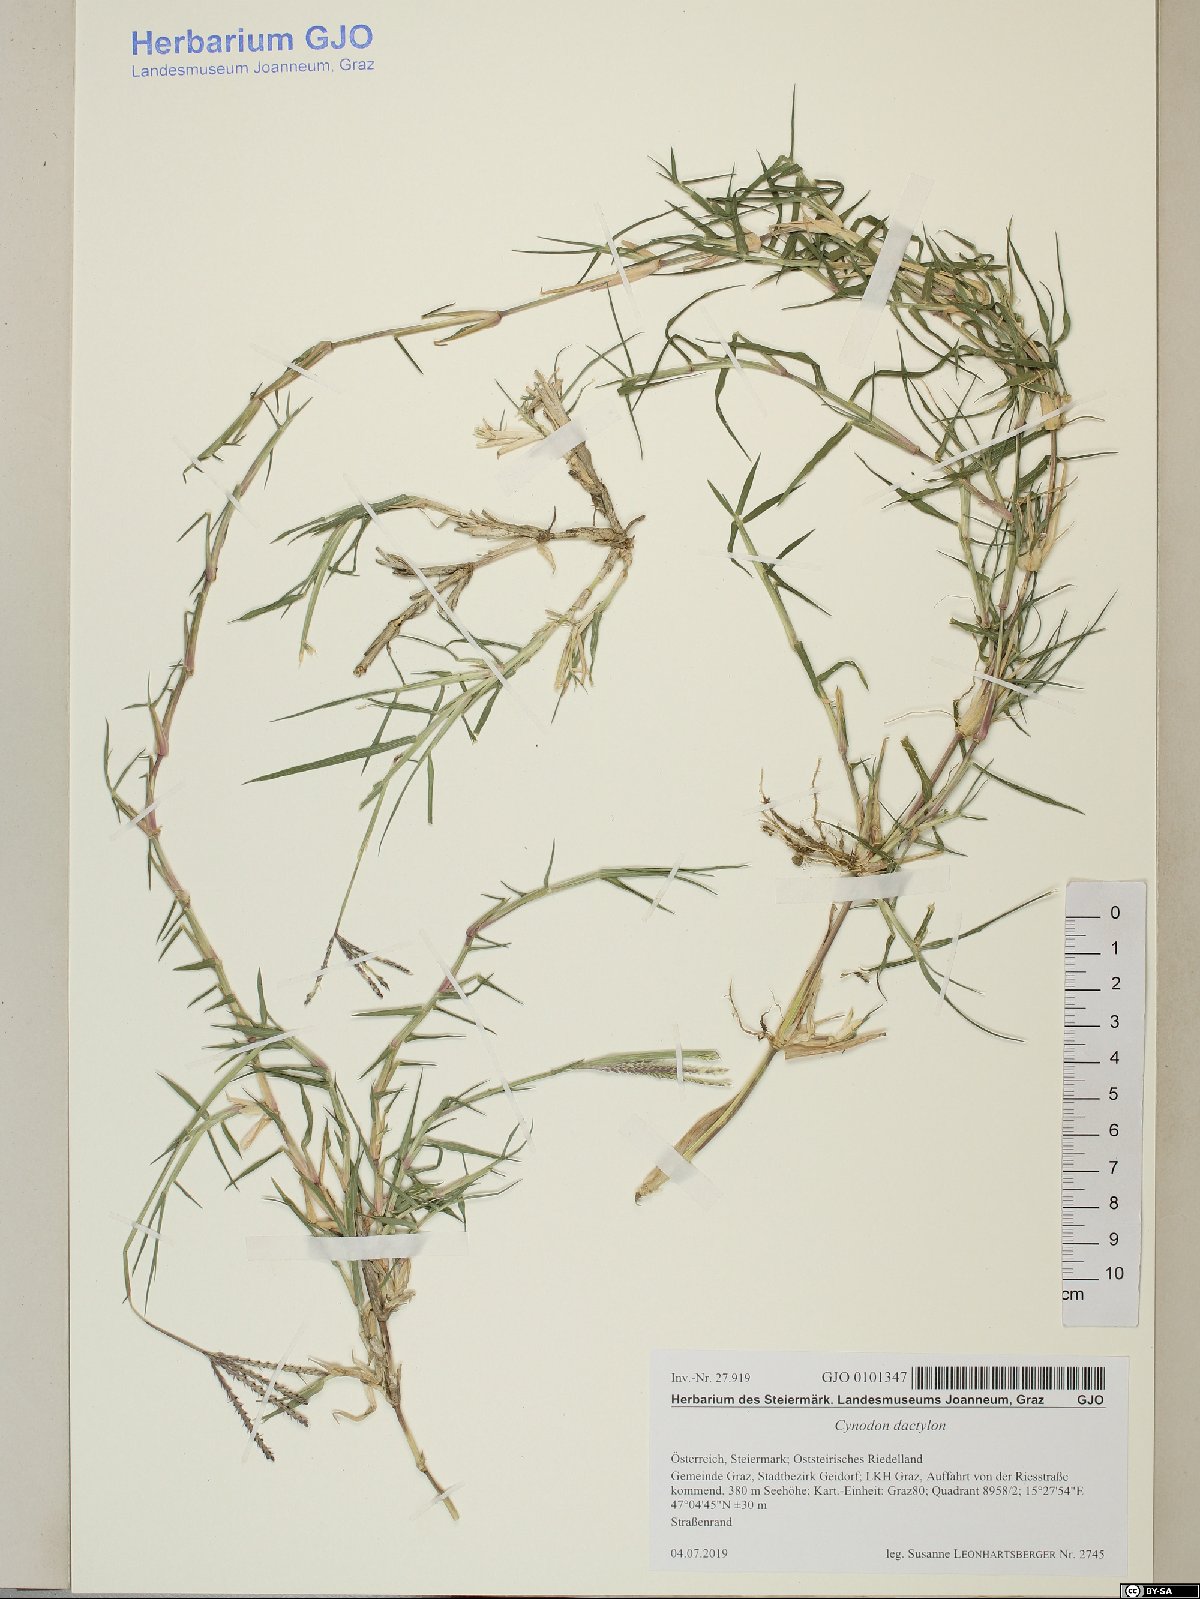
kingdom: Plantae
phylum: Tracheophyta
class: Liliopsida
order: Poales
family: Poaceae
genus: Cynodon
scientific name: Cynodon dactylon
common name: Bermuda grass
